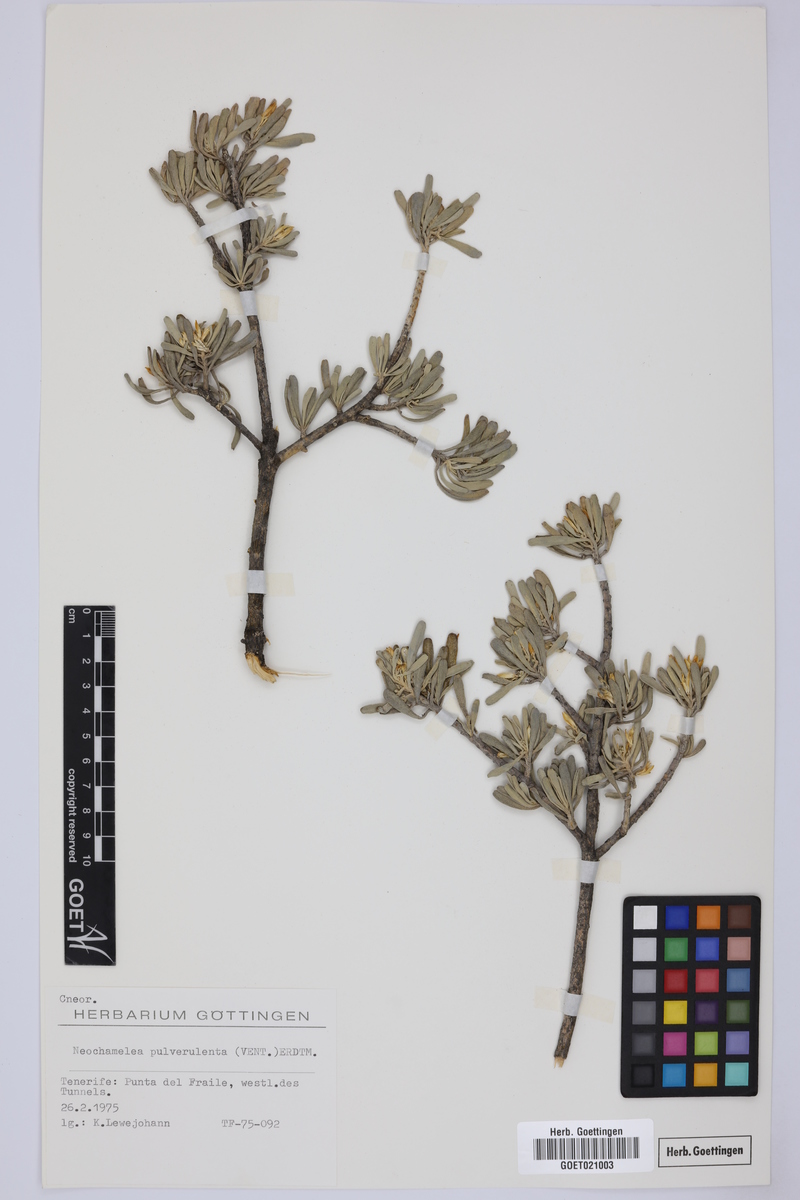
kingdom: Plantae
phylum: Tracheophyta
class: Magnoliopsida
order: Sapindales
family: Rutaceae
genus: Cneorum
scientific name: Cneorum pulverulentum
